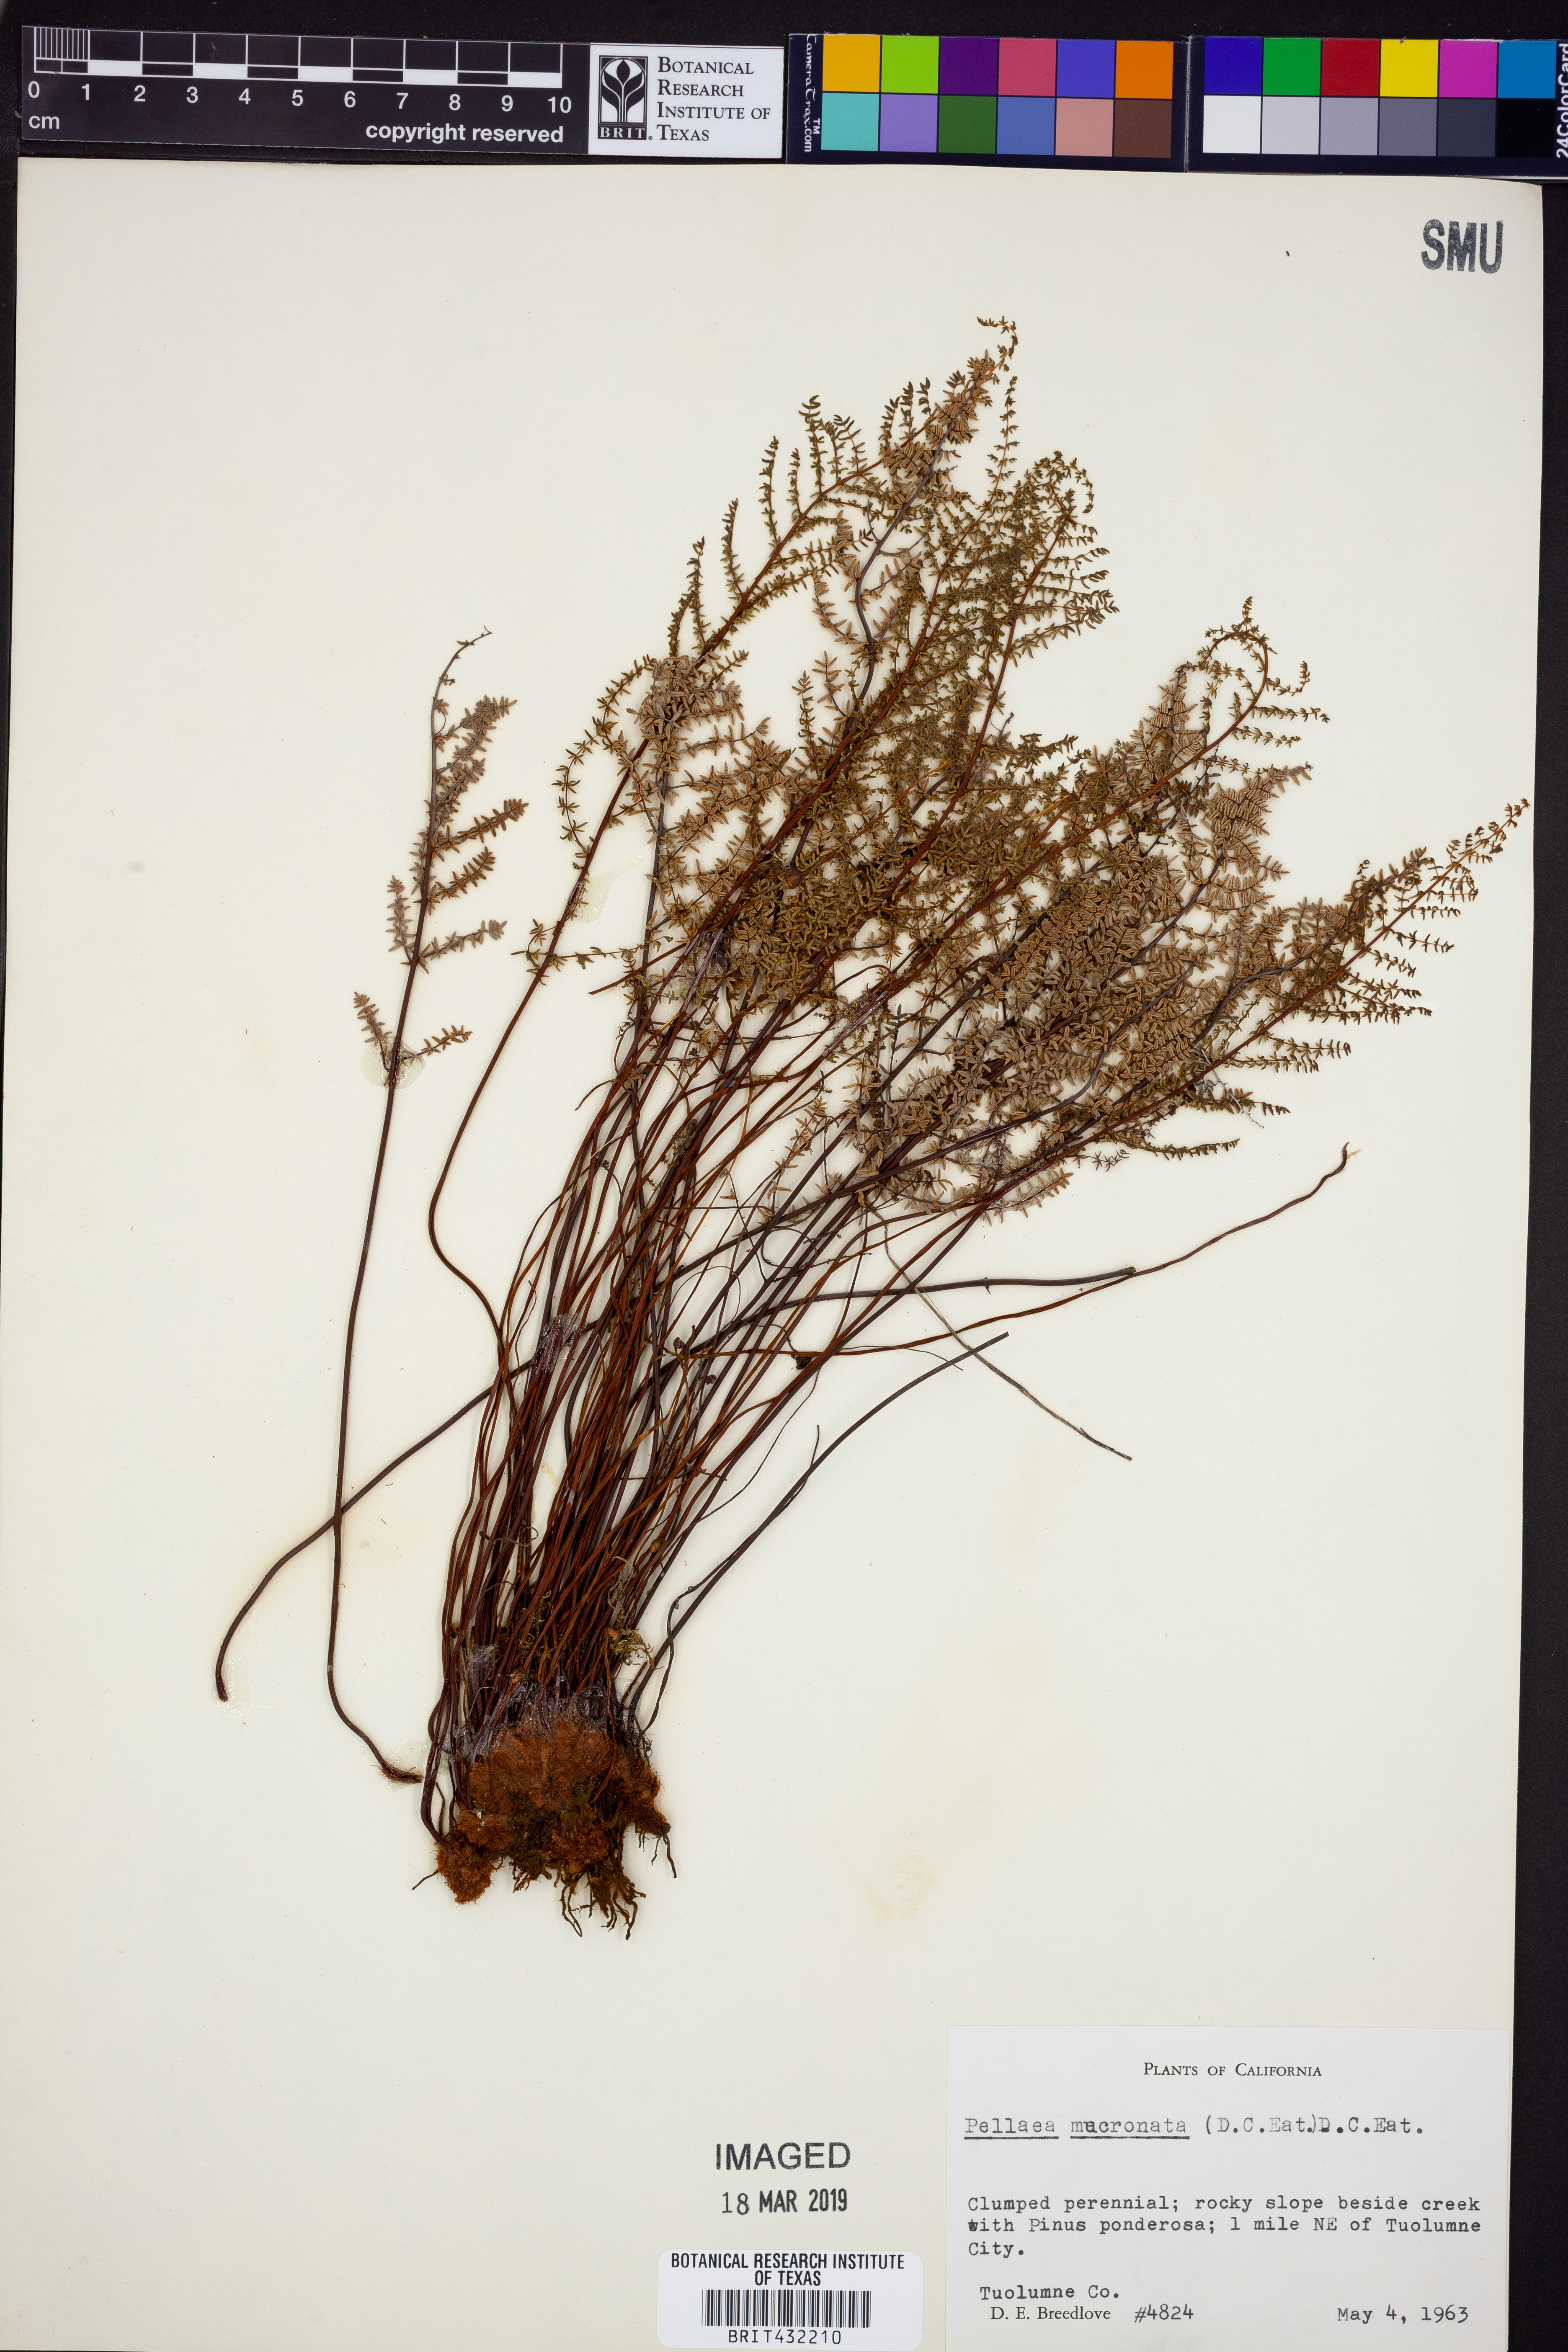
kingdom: Plantae
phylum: Tracheophyta
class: Polypodiopsida
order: Polypodiales
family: Pteridaceae
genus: Pellaea
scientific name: Pellaea atropurpurea
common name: Hairy cliffbrake
